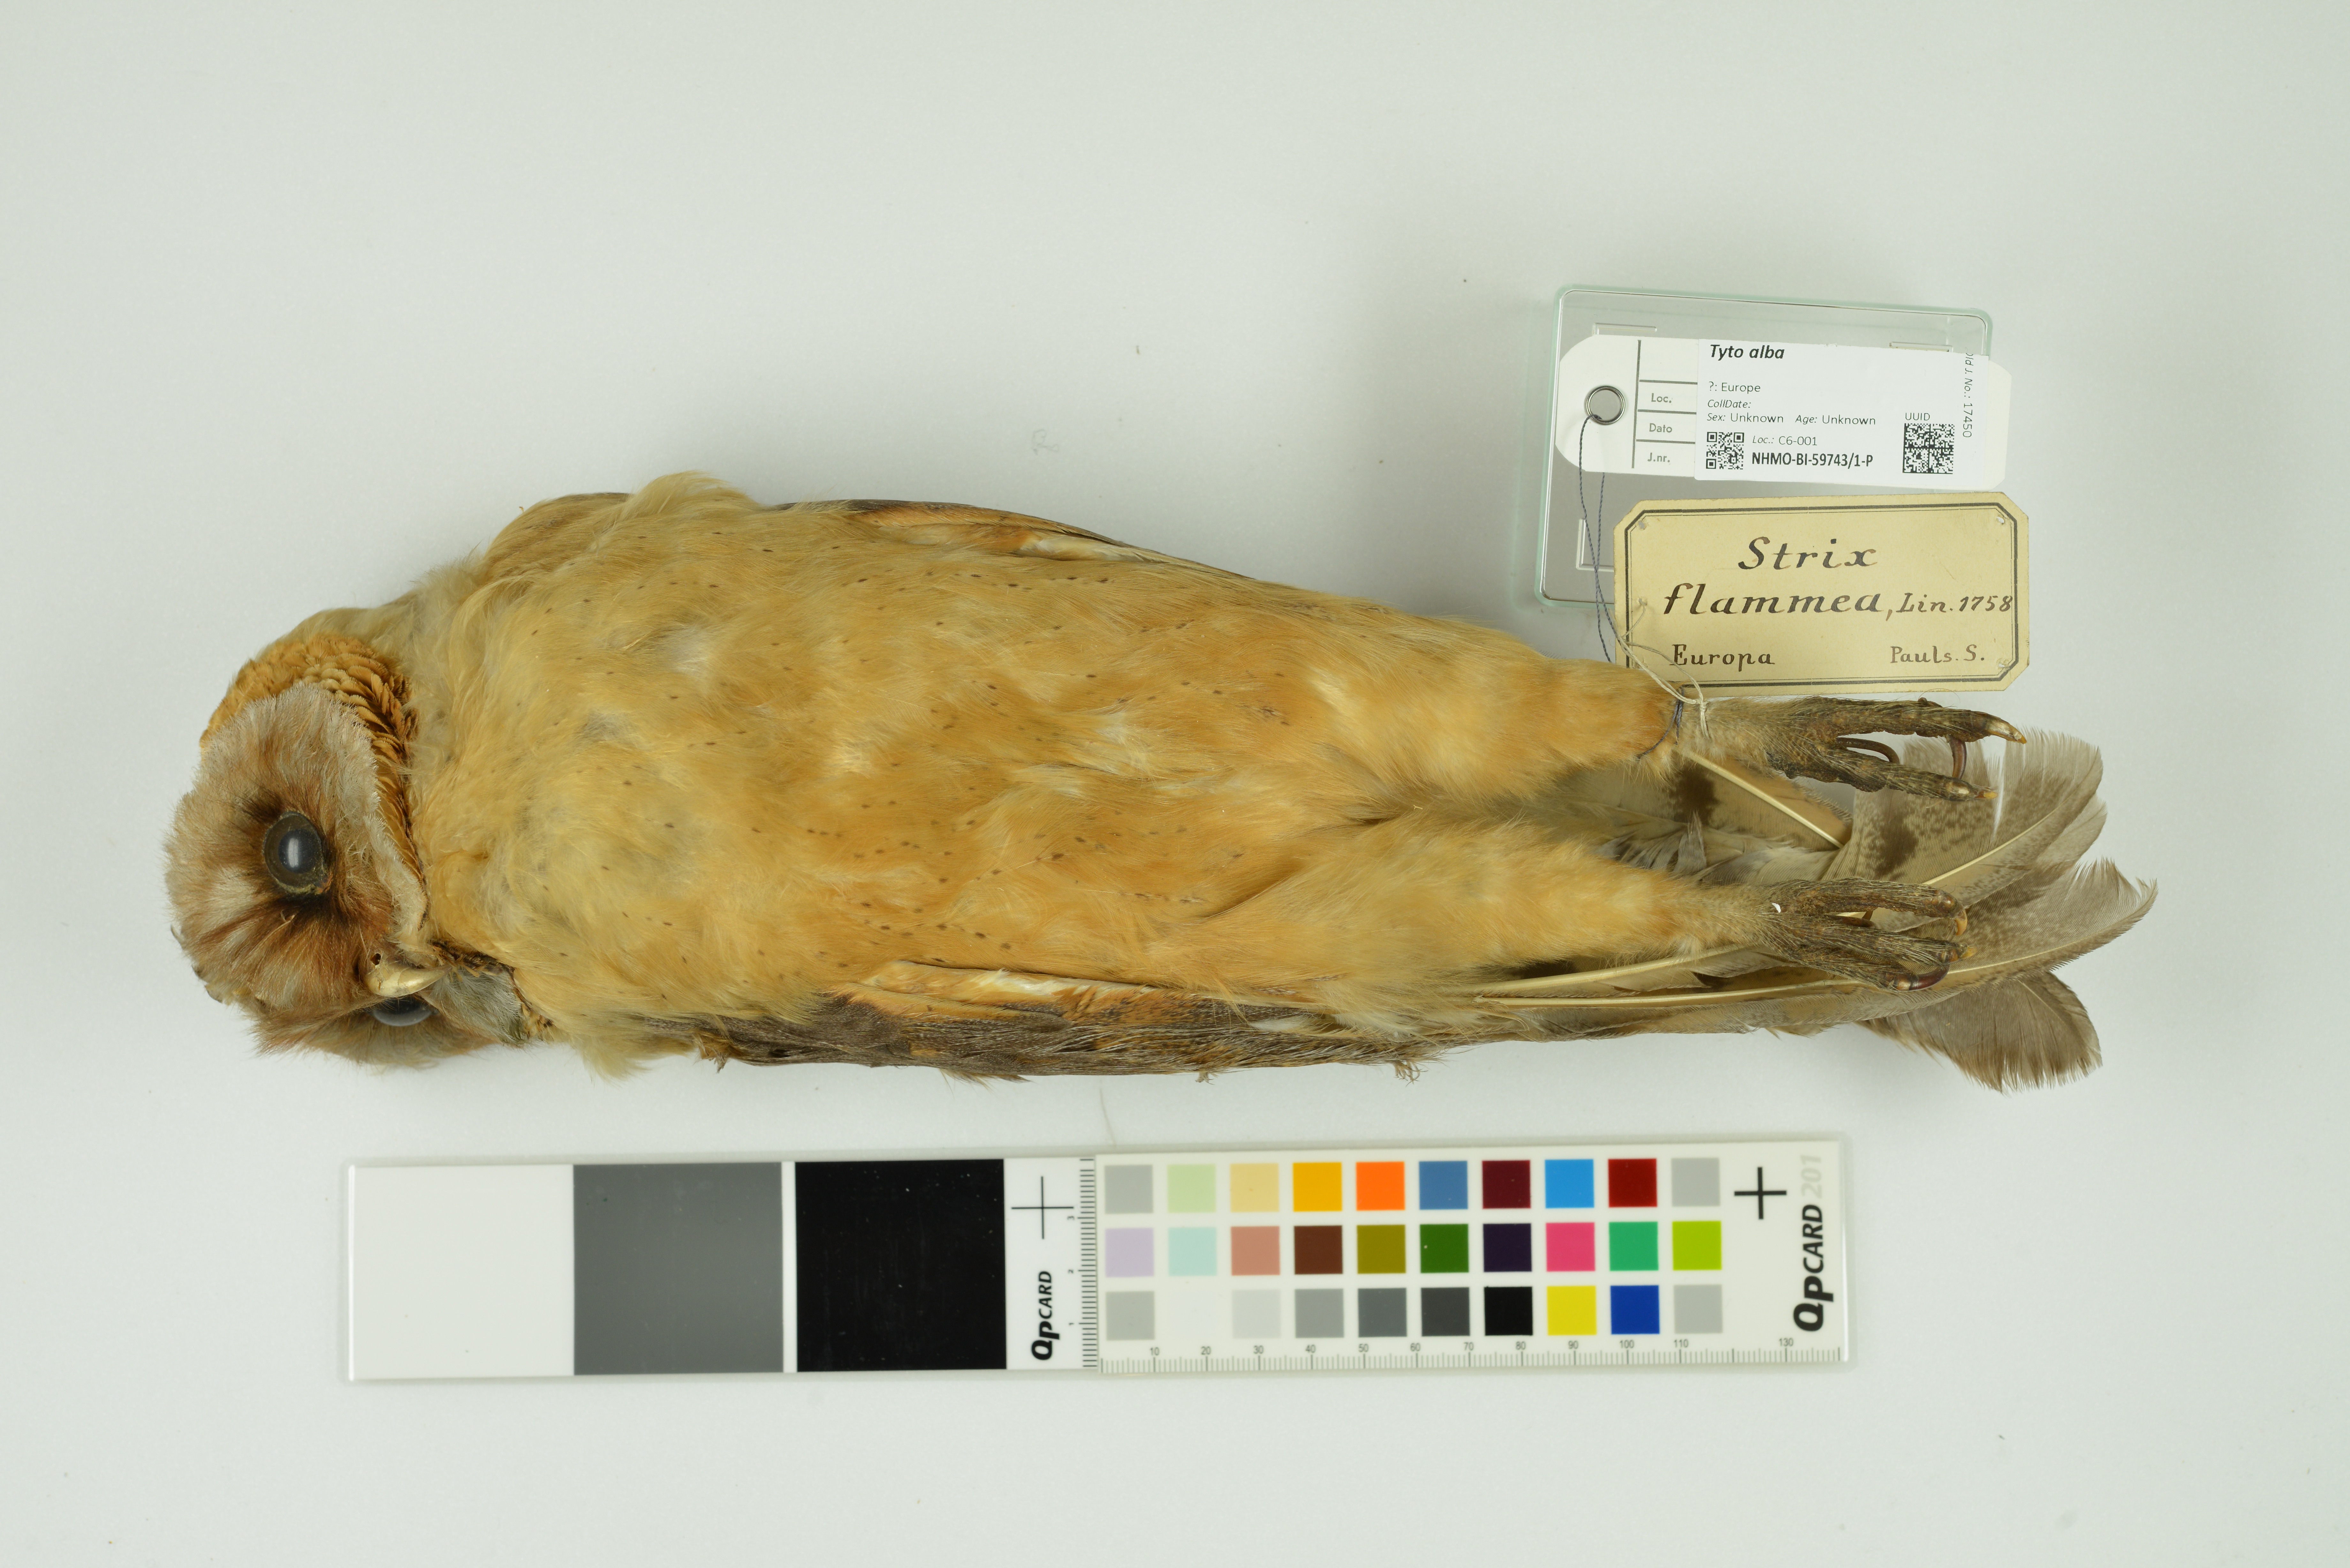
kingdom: Animalia
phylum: Chordata
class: Aves
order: Strigiformes
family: Tytonidae
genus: Tyto
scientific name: Tyto alba
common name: Barn owl
